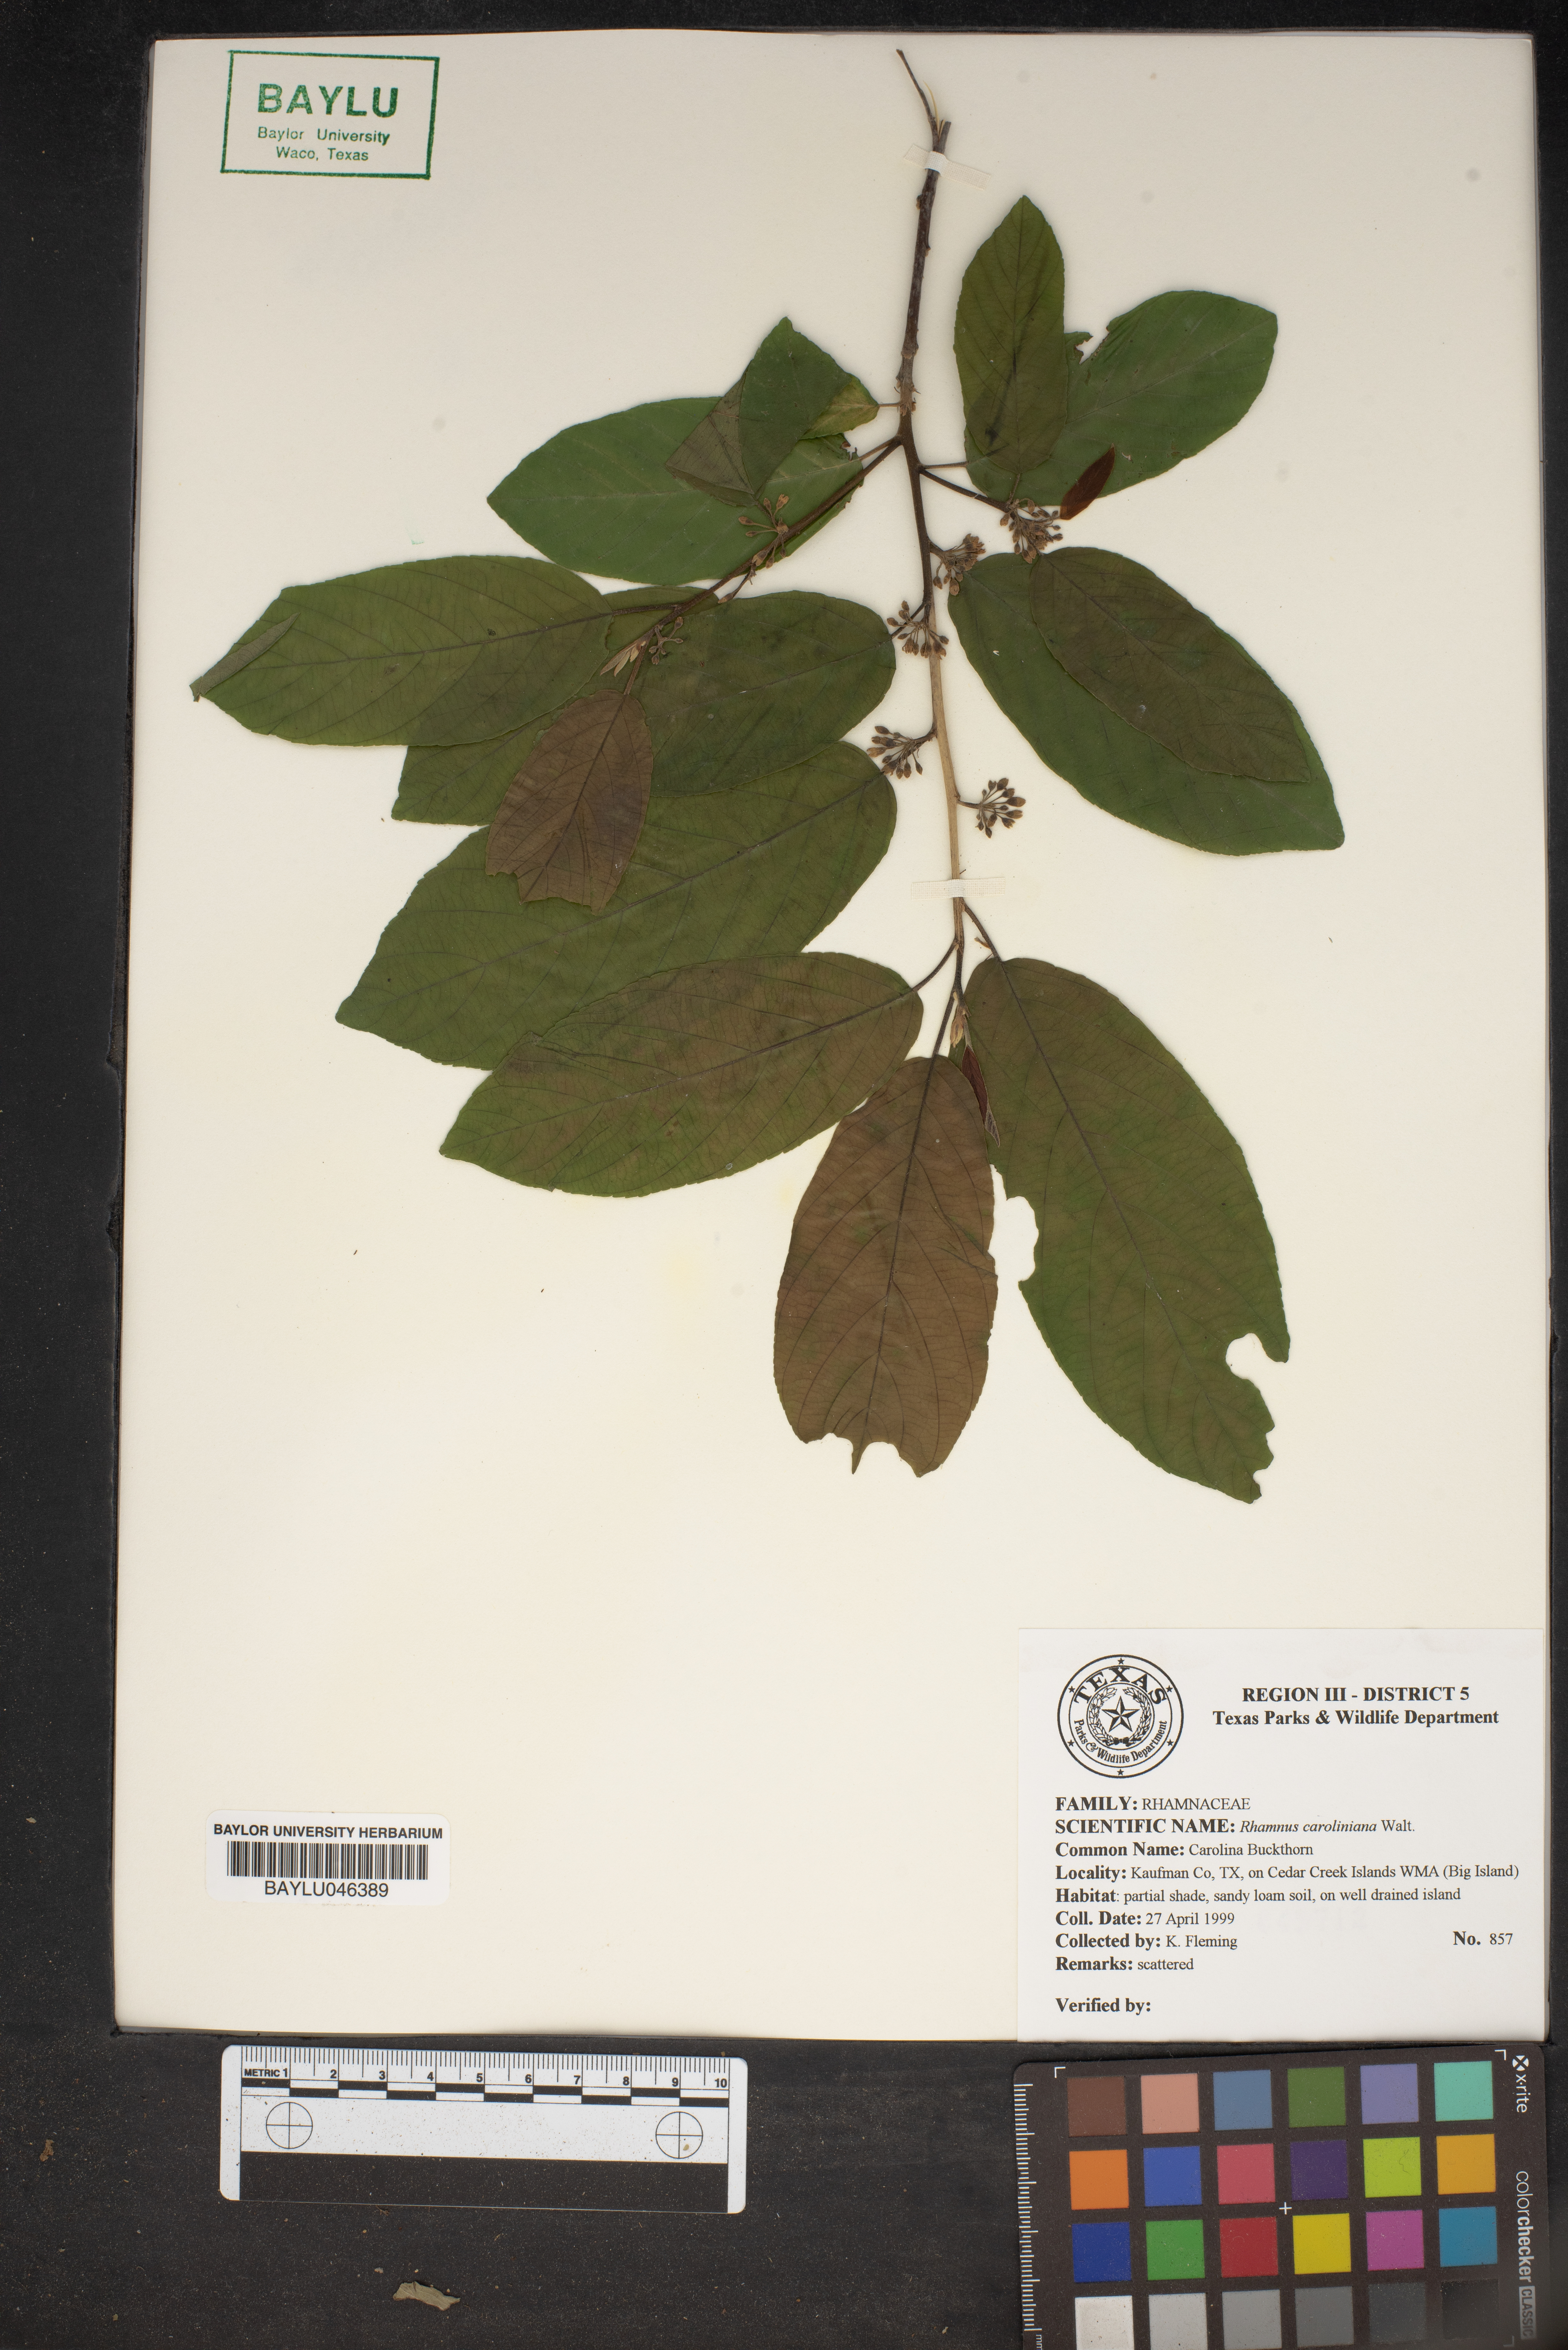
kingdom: Plantae
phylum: Tracheophyta
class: Magnoliopsida
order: Rosales
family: Rhamnaceae
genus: Frangula
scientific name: Frangula caroliniana
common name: Carolina buckthorn
